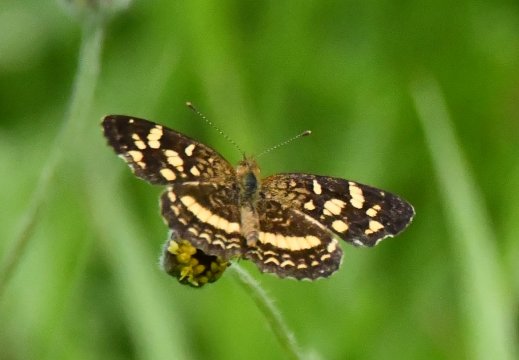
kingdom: Animalia
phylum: Arthropoda
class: Insecta
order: Lepidoptera
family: Nymphalidae
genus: Anthanassa
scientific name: Anthanassa tulcis
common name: Pale-banded Crescent
